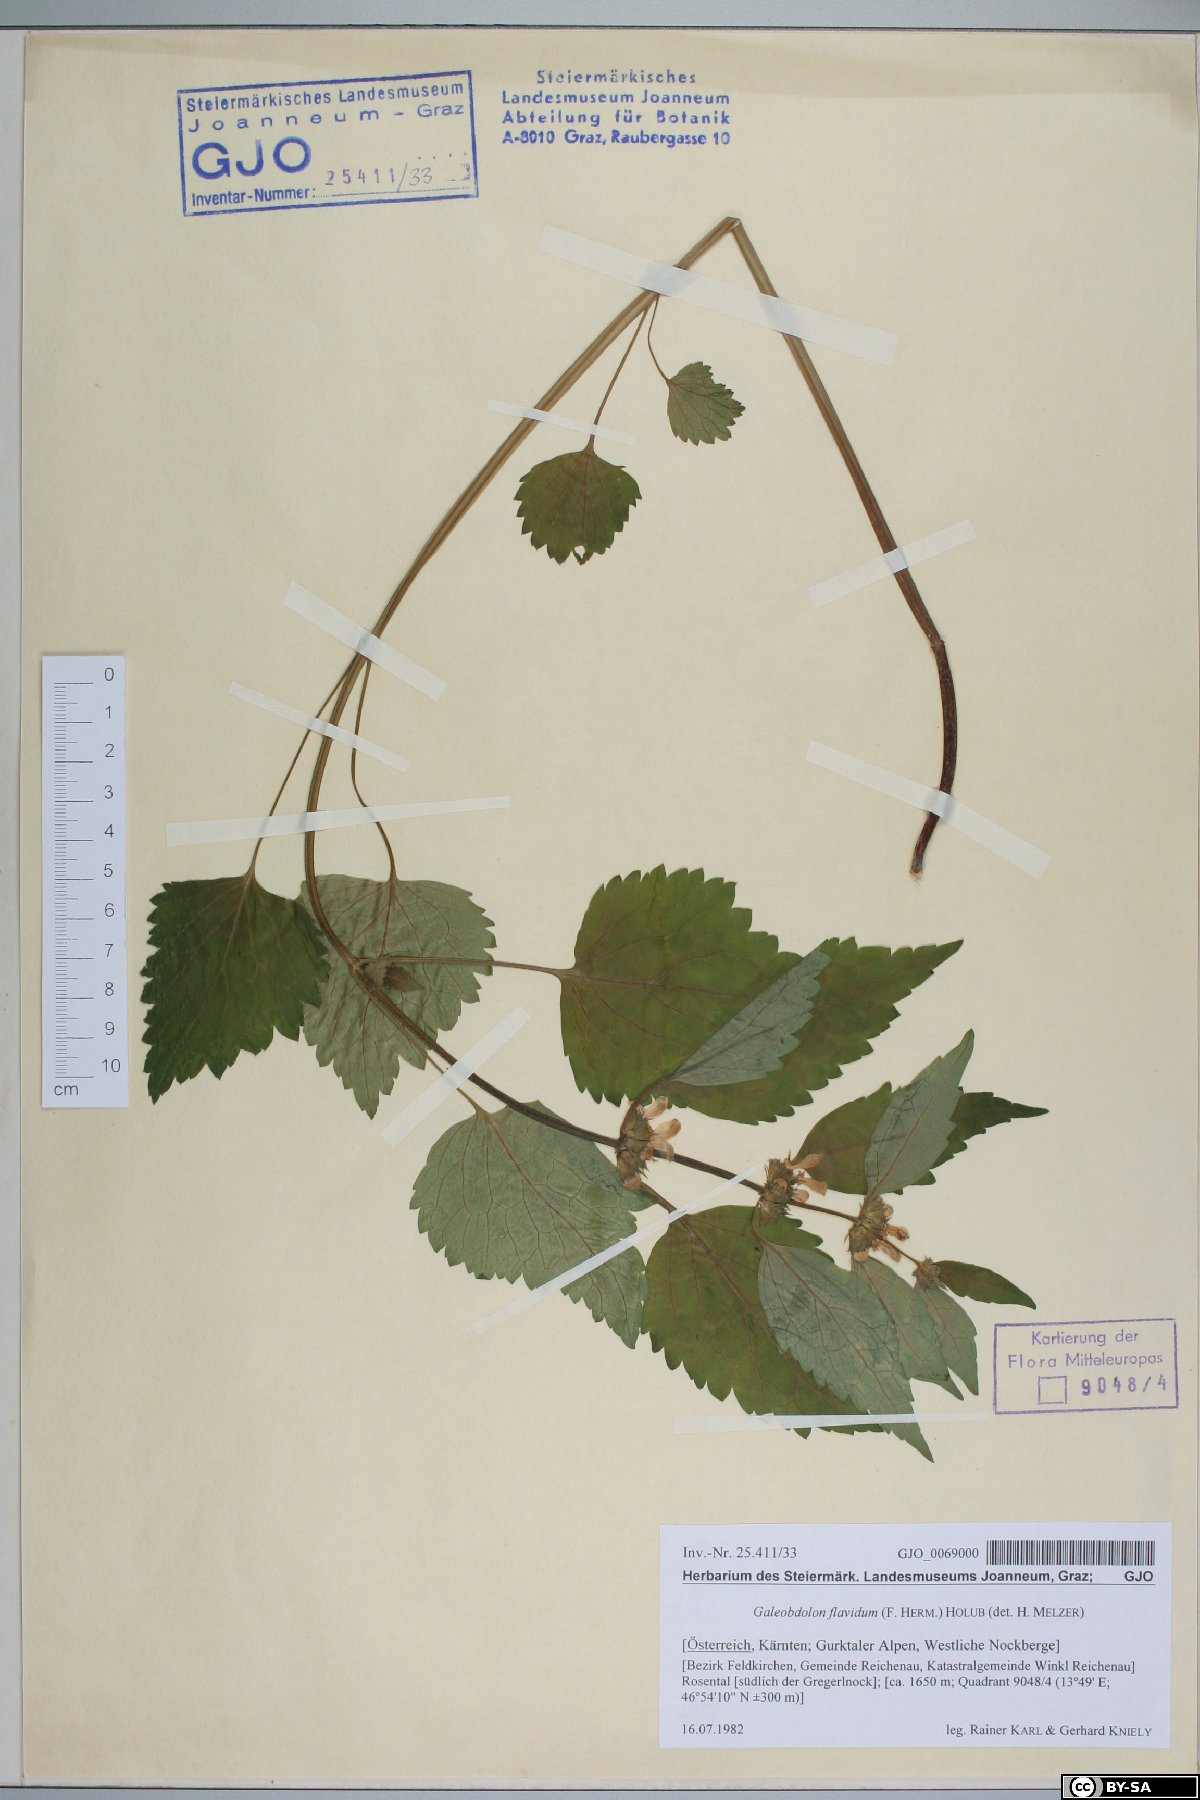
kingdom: Plantae
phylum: Tracheophyta
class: Magnoliopsida
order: Lamiales
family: Lamiaceae
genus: Lamium
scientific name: Lamium galeobdolon
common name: Yellow archangel
